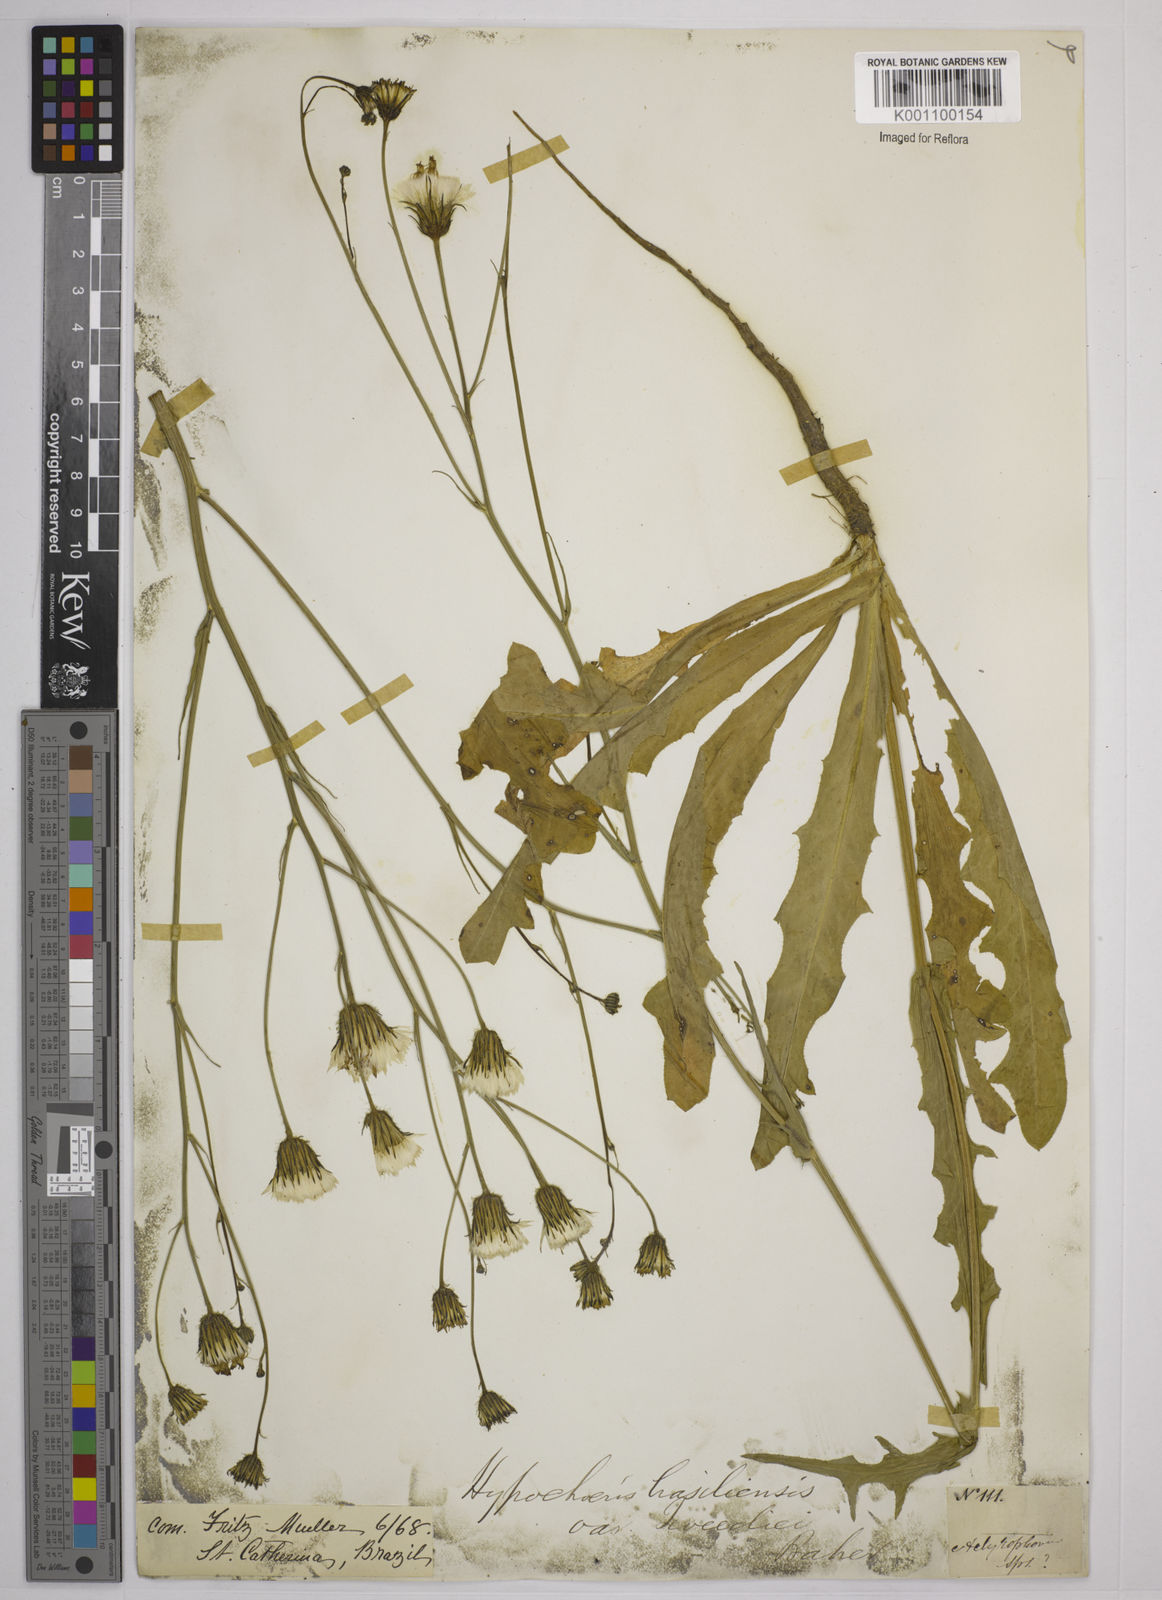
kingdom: Plantae
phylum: Tracheophyta
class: Magnoliopsida
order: Asterales
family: Asteraceae
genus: Hypochaeris
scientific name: Hypochaeris chillensis
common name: Brazilian cat's ear
